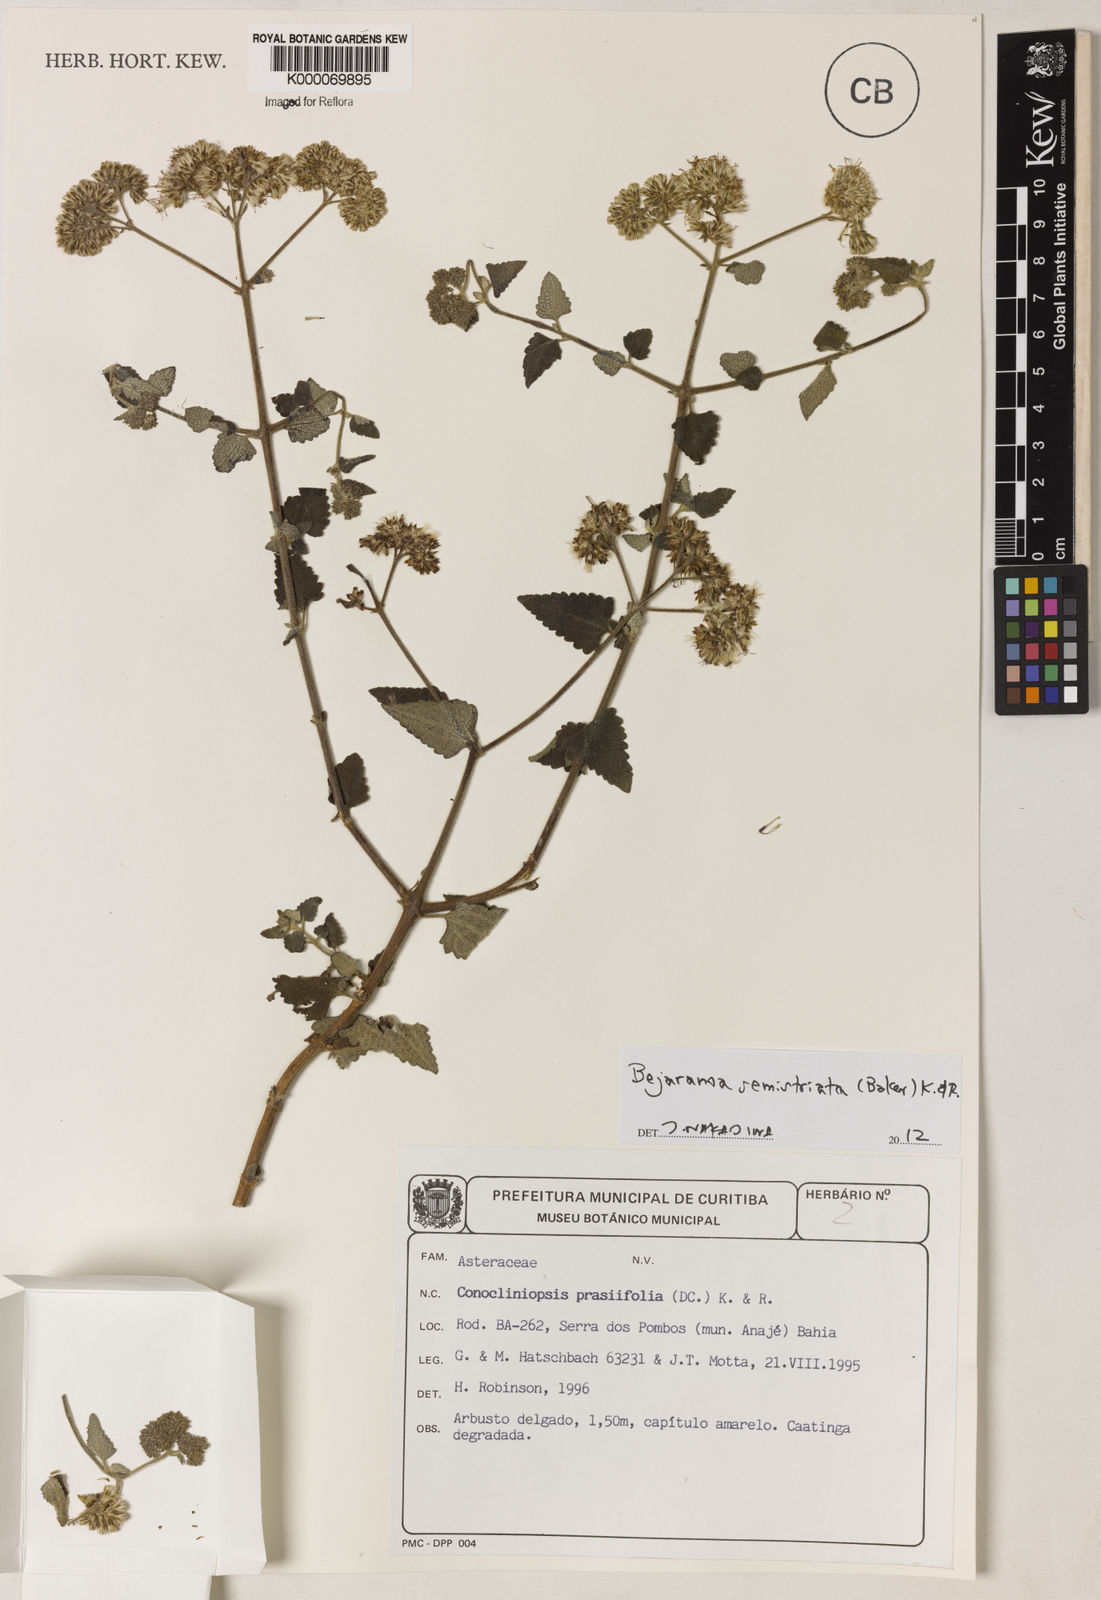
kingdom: Plantae
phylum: Tracheophyta
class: Magnoliopsida
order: Asterales
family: Asteraceae
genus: Conocliniopsis
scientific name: Conocliniopsis grossedentata
